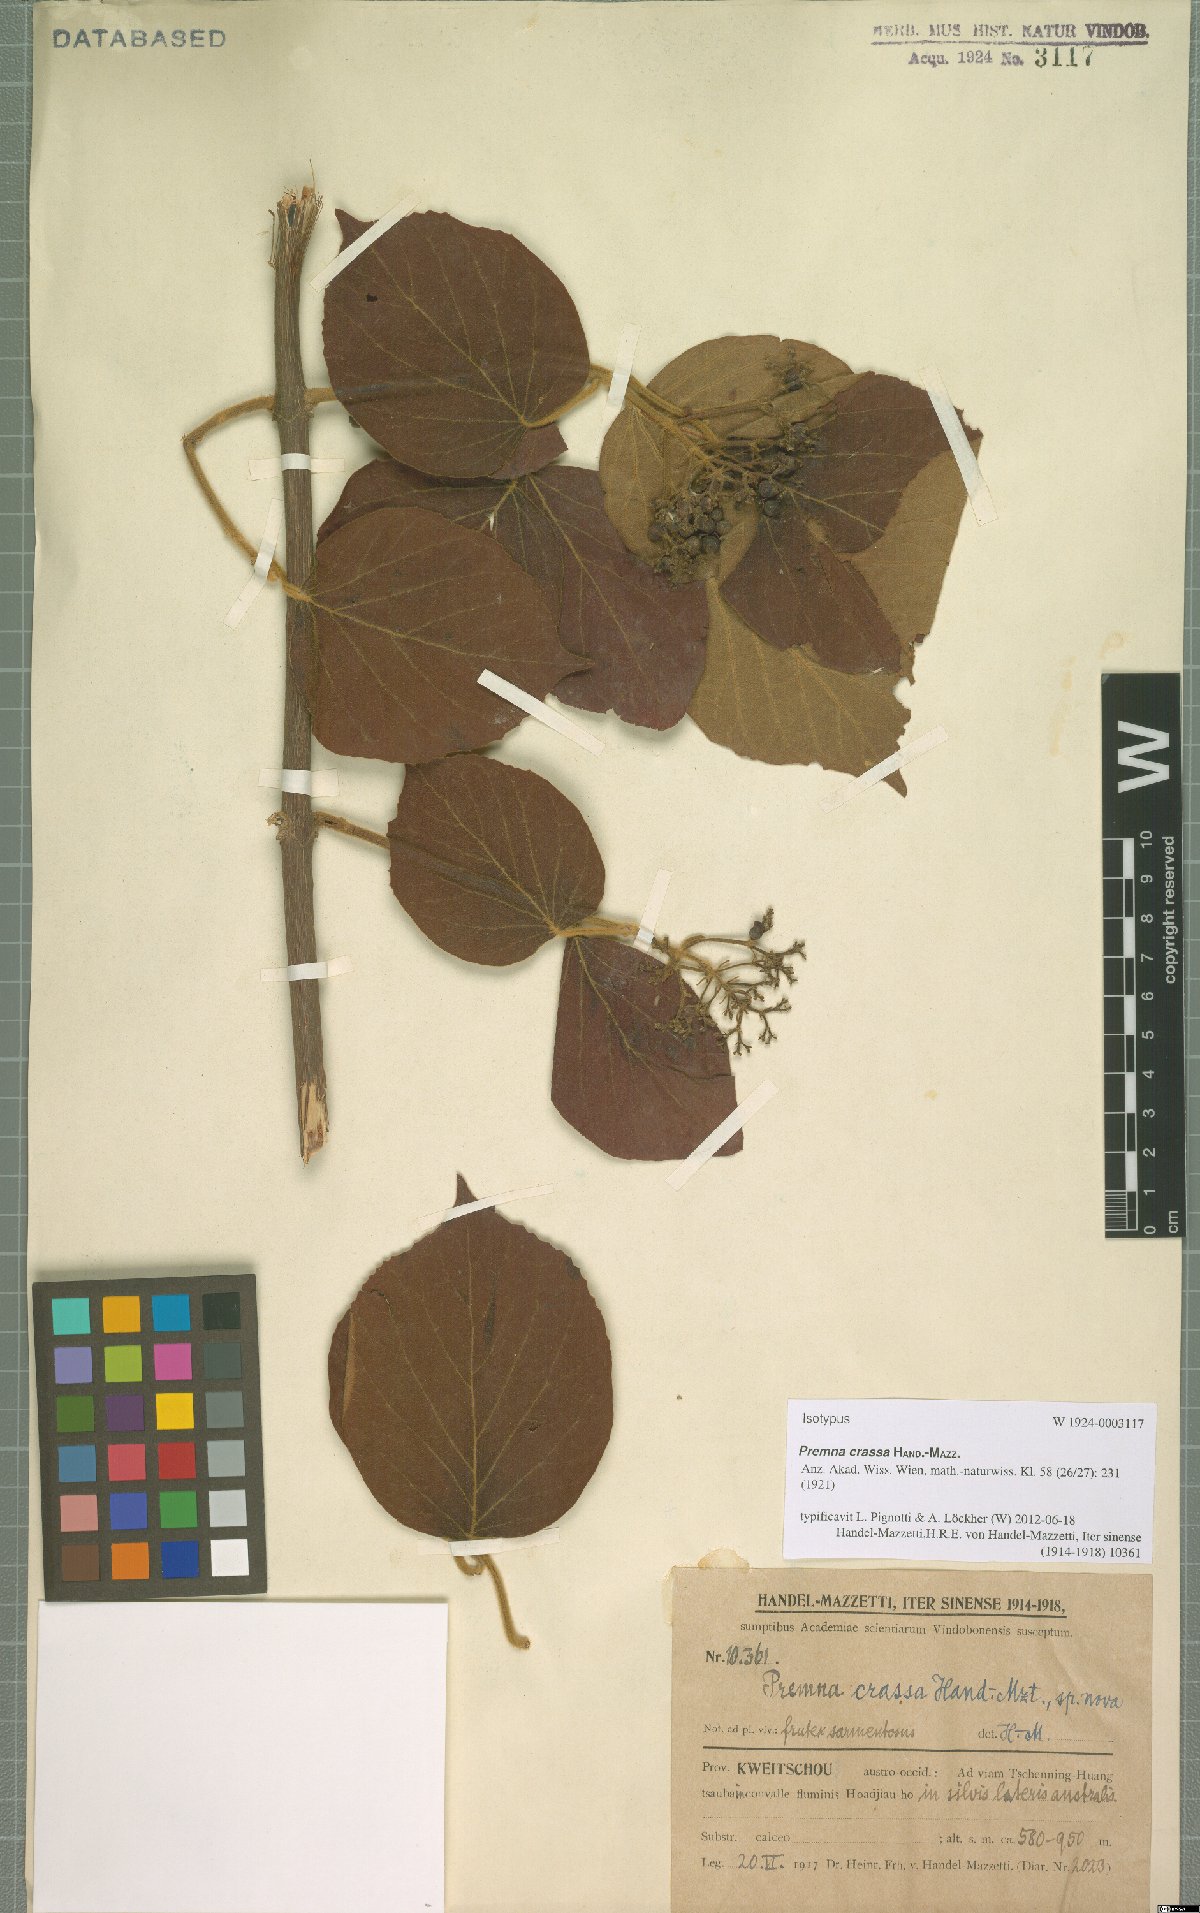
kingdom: Plantae
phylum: Tracheophyta
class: Magnoliopsida
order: Lamiales
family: Lamiaceae
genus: Premna
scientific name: Premna fulva
